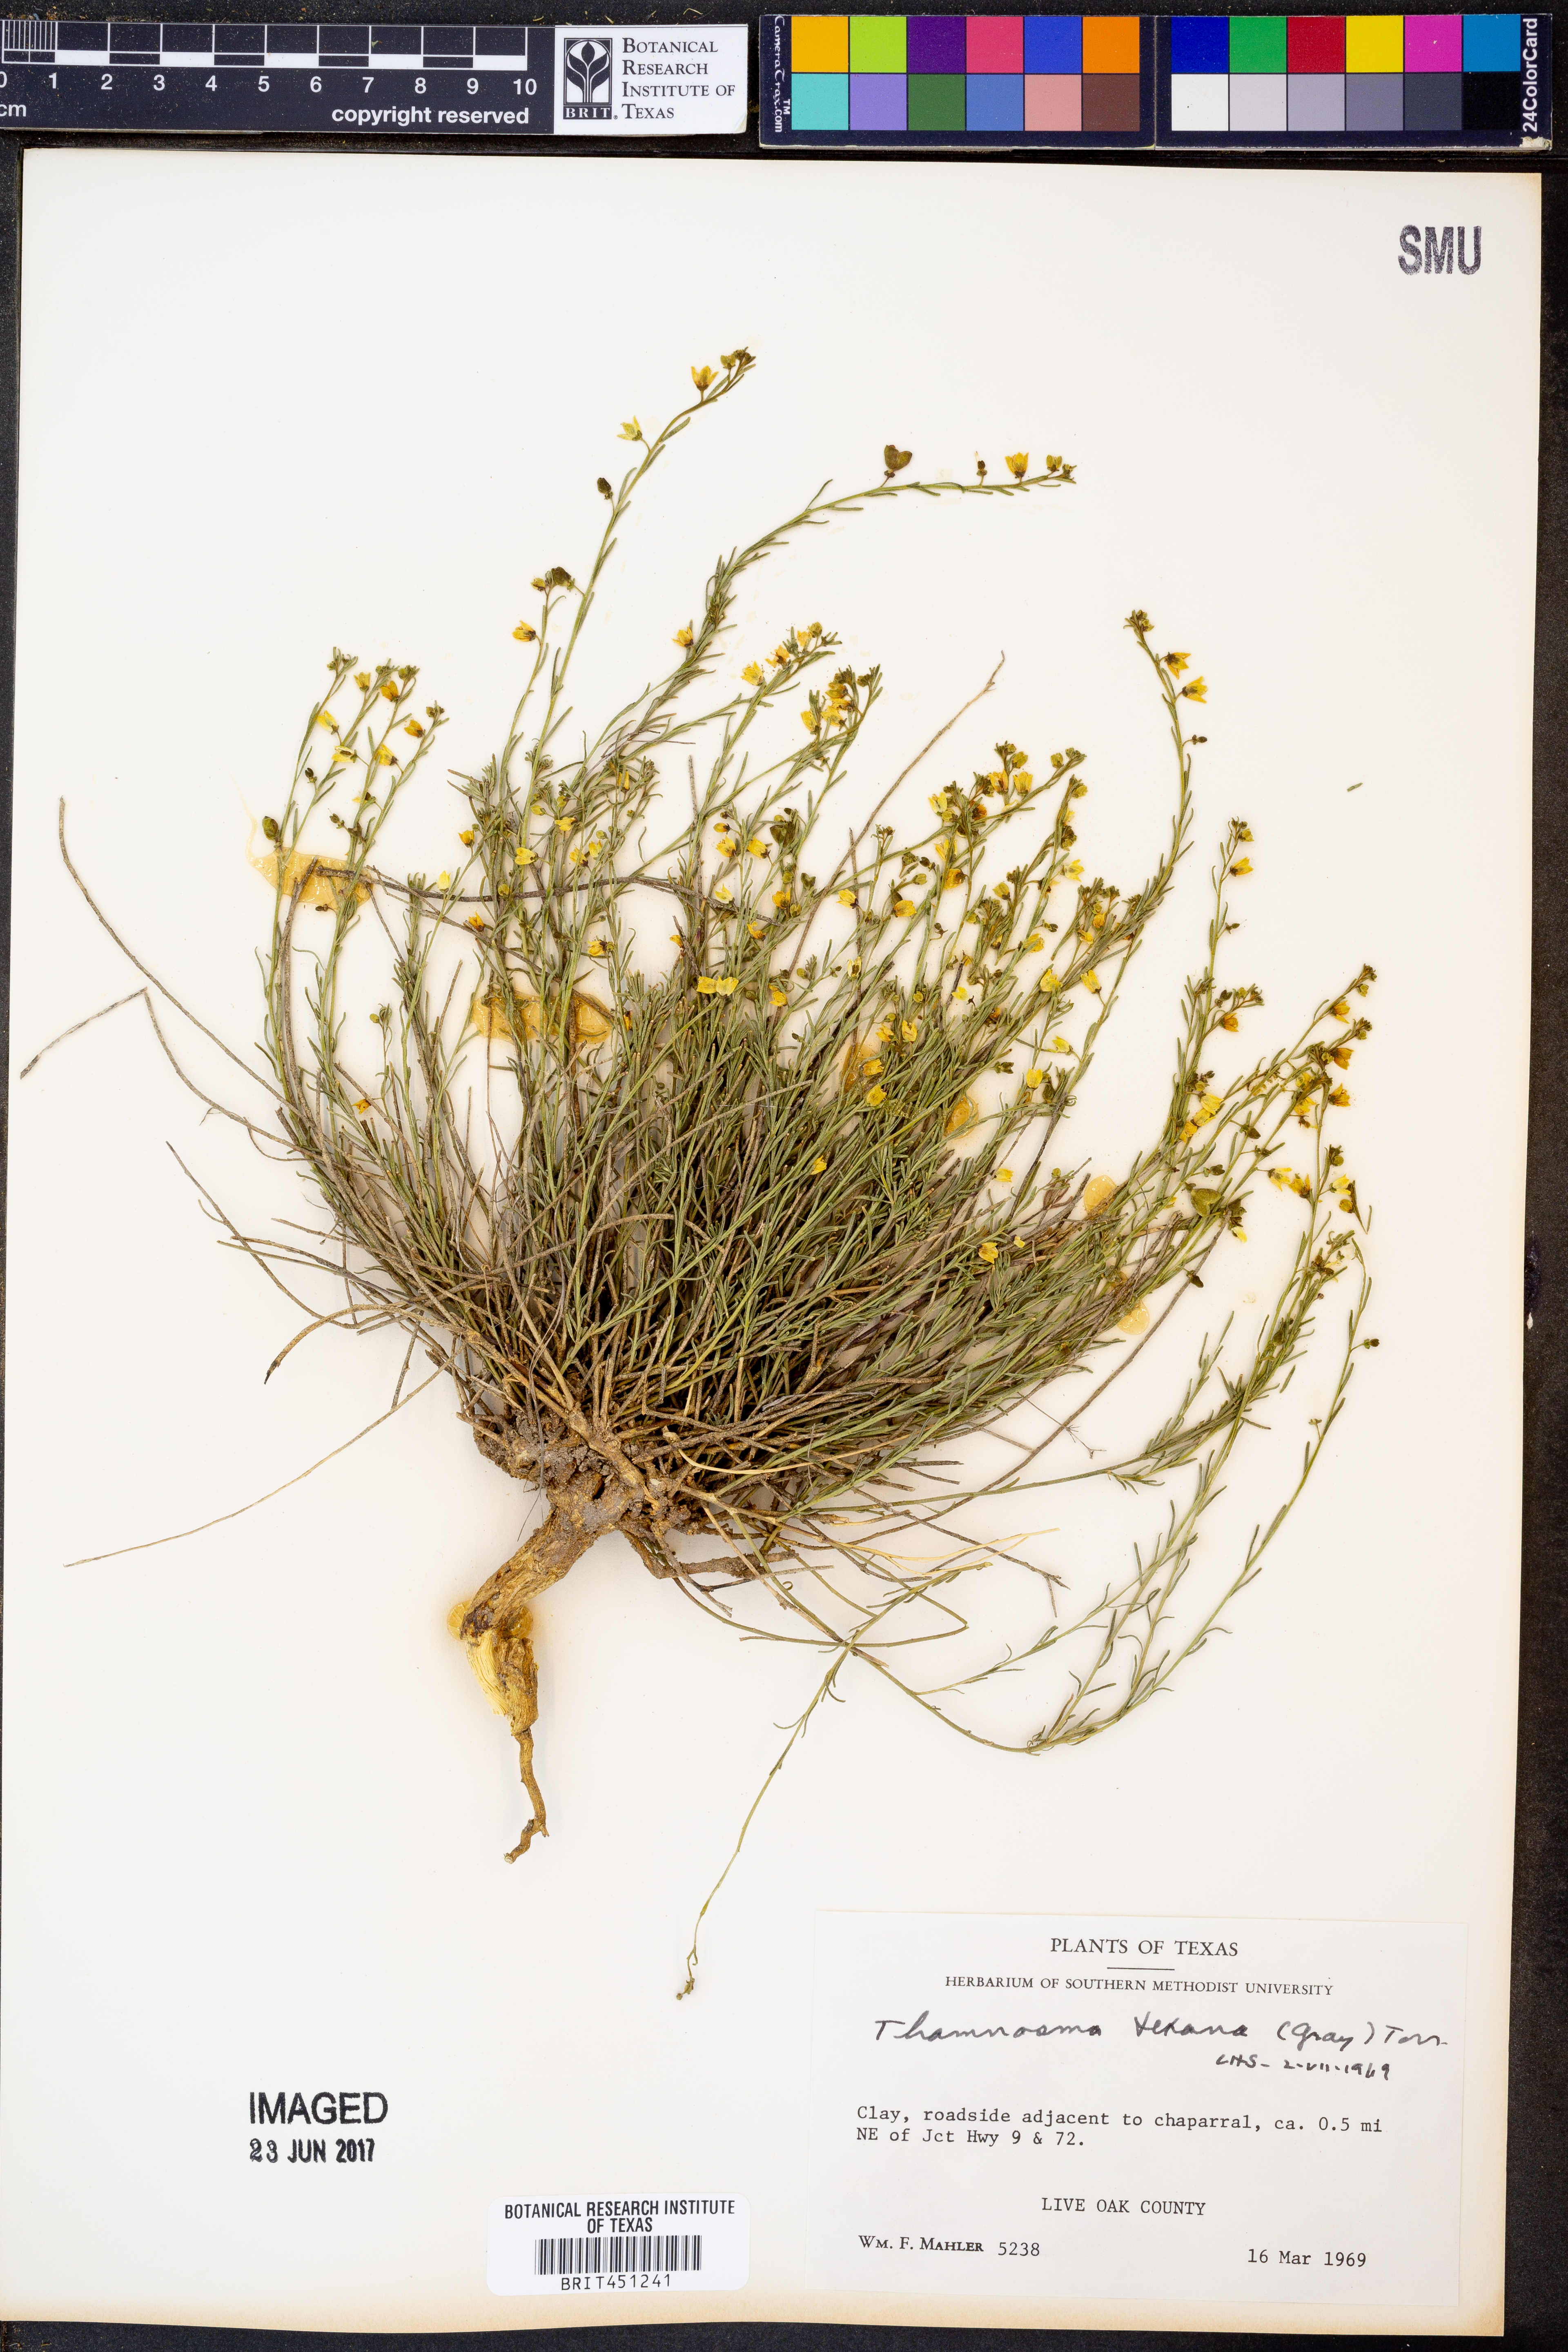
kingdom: Plantae
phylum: Tracheophyta
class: Magnoliopsida
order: Sapindales
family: Rutaceae
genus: Thamnosma
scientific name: Thamnosma texana
